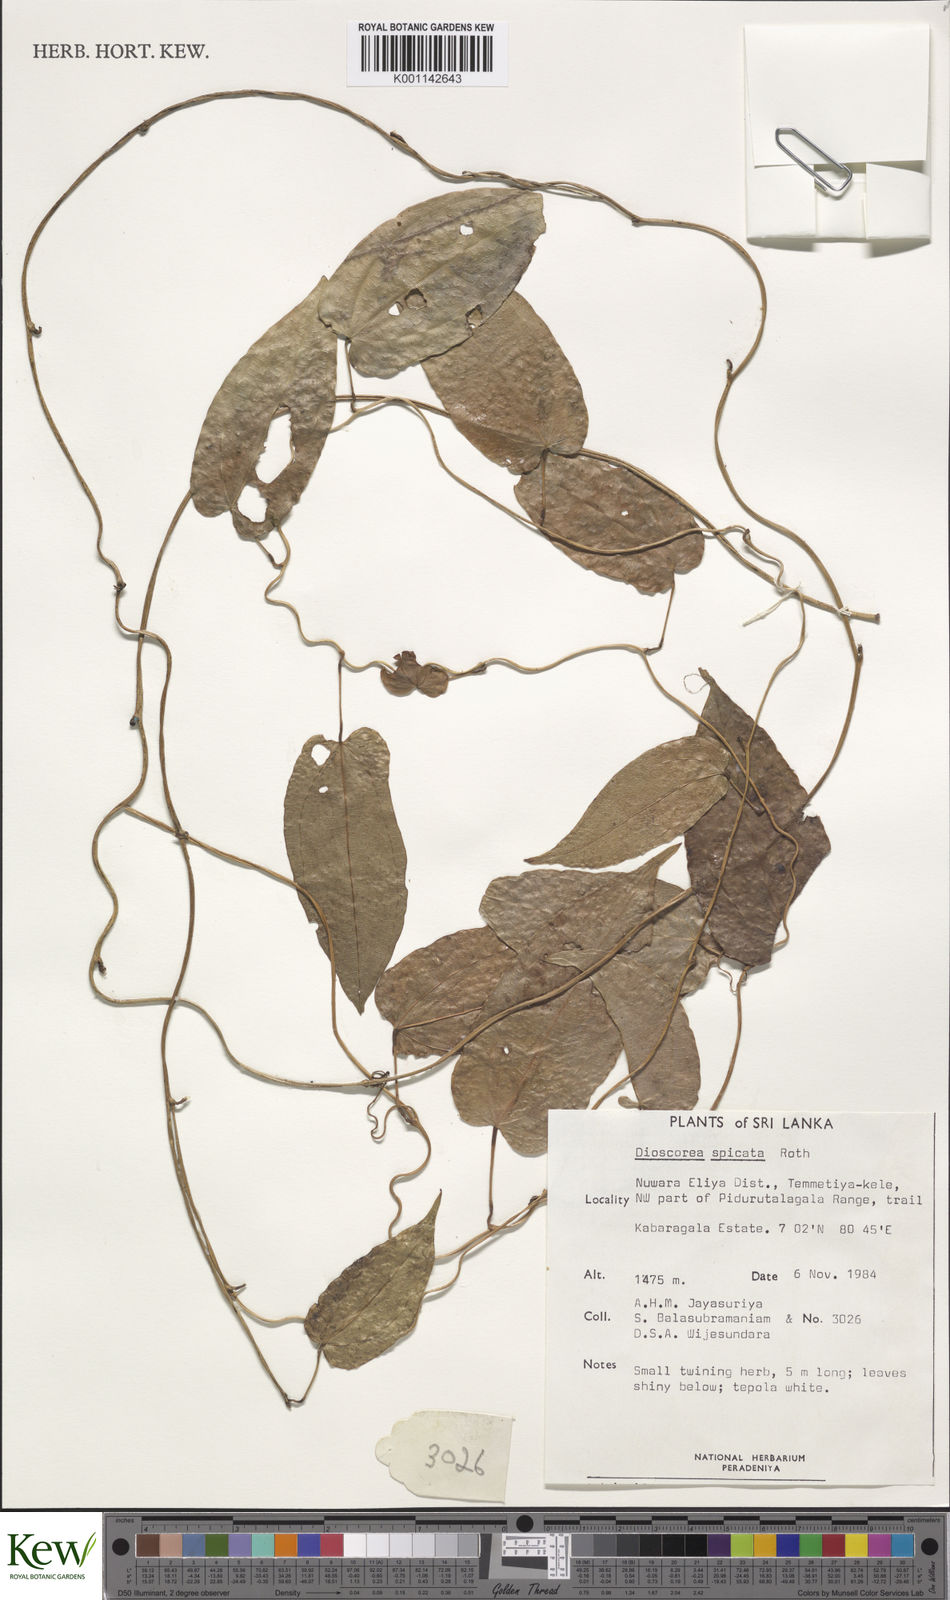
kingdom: Plantae
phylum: Tracheophyta
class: Liliopsida
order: Dioscoreales
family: Dioscoreaceae
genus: Dioscorea
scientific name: Dioscorea spicata
